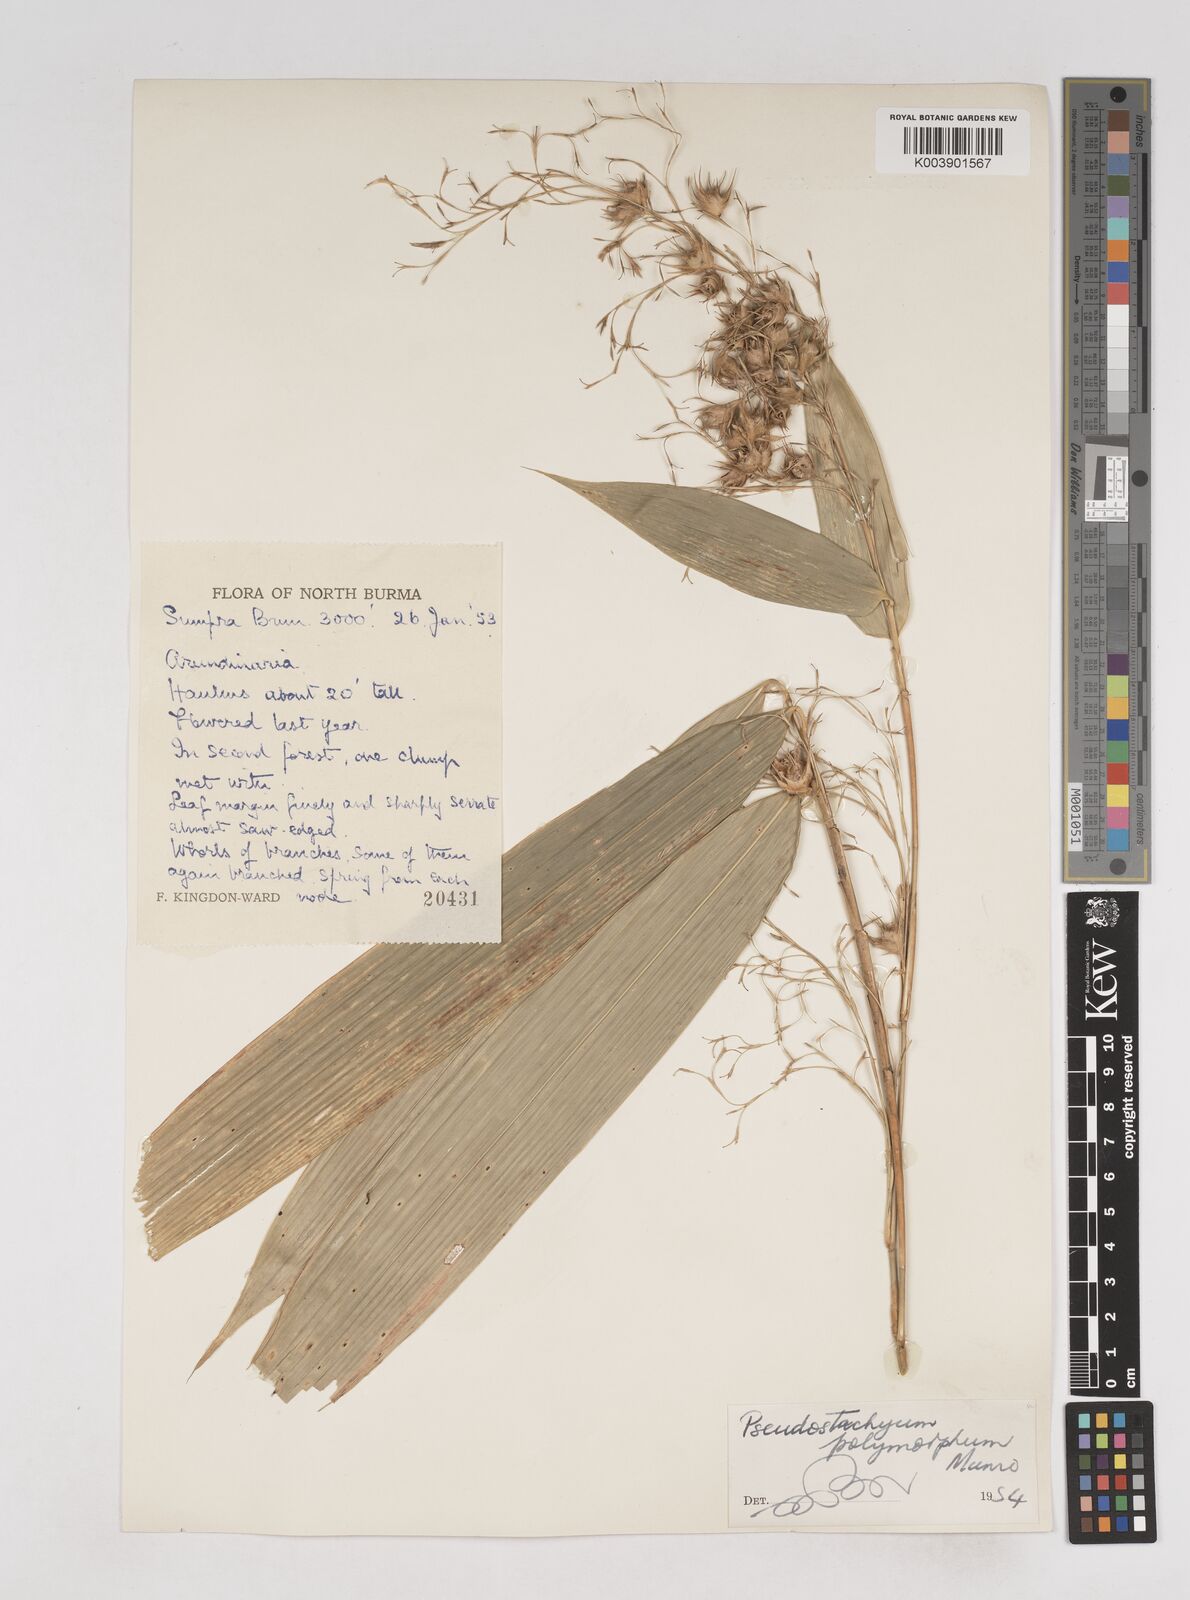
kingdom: Plantae
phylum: Tracheophyta
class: Liliopsida
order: Poales
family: Poaceae
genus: Pseudostachyum
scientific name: Pseudostachyum polymorphum
